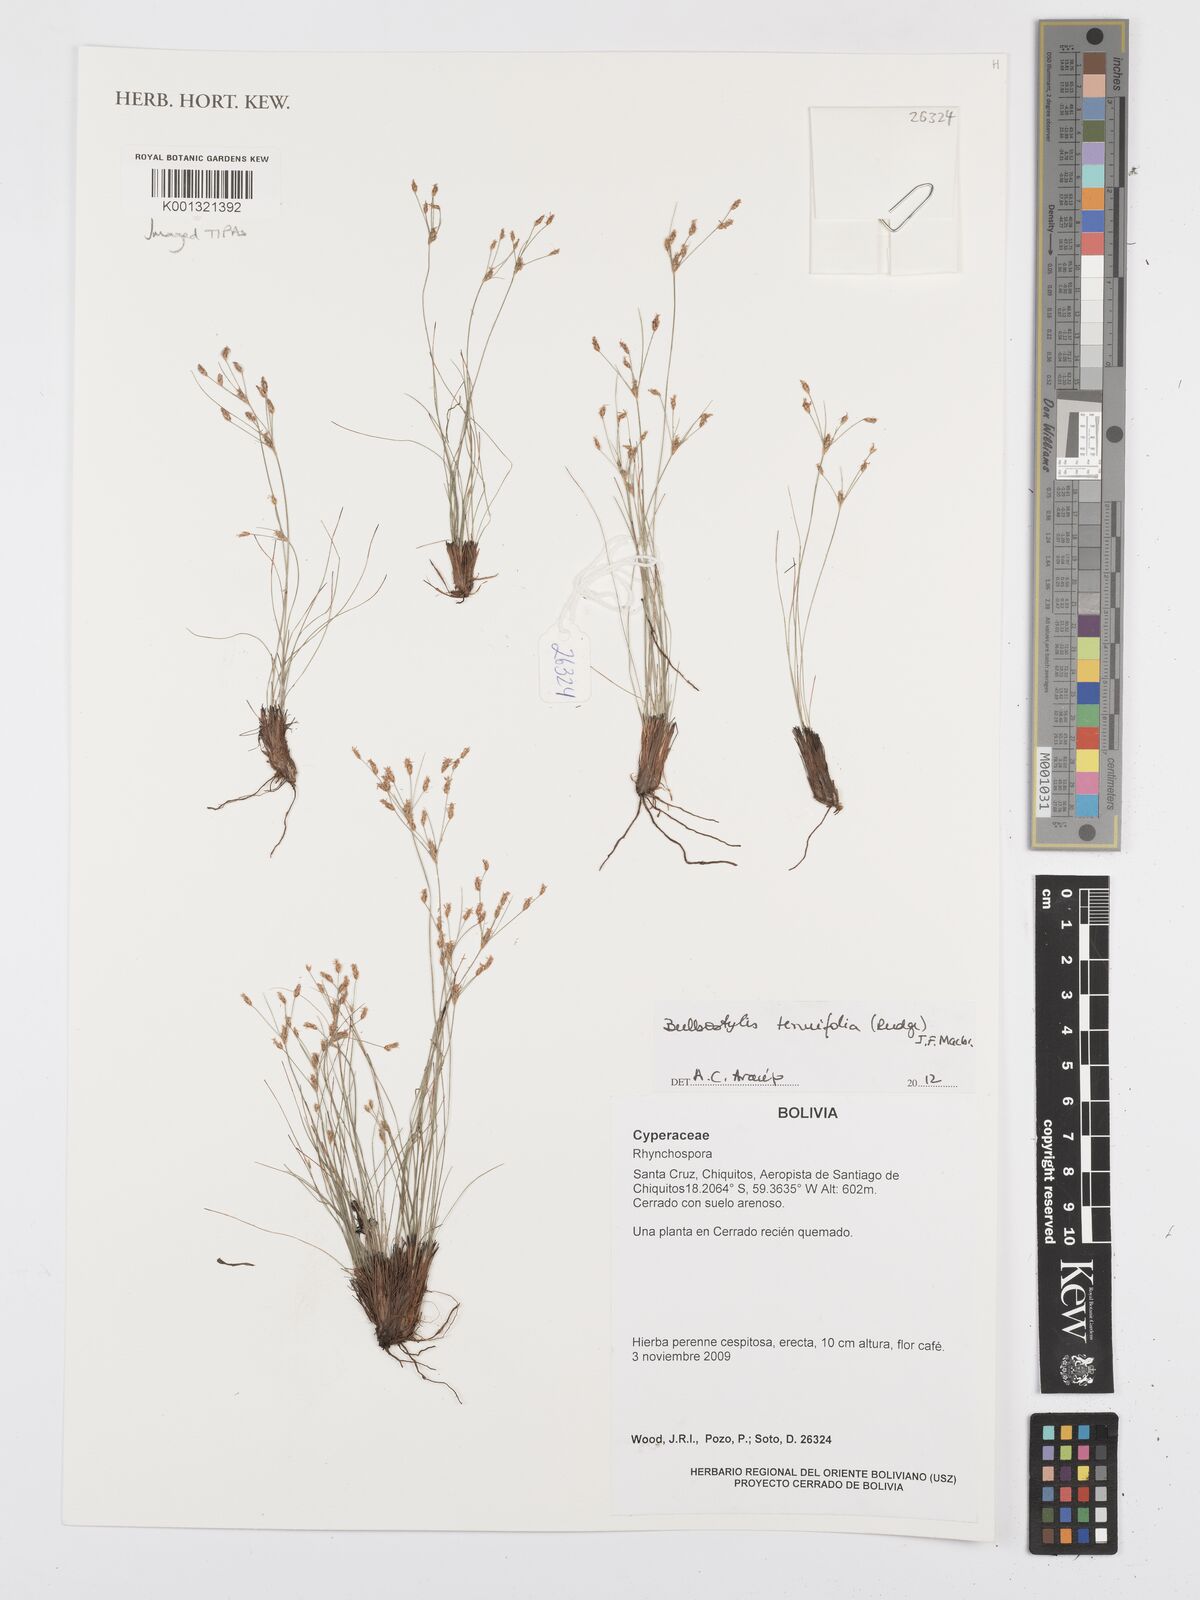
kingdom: Plantae
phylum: Tracheophyta
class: Liliopsida
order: Poales
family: Cyperaceae
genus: Bulbostylis
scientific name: Bulbostylis tenuifolia
